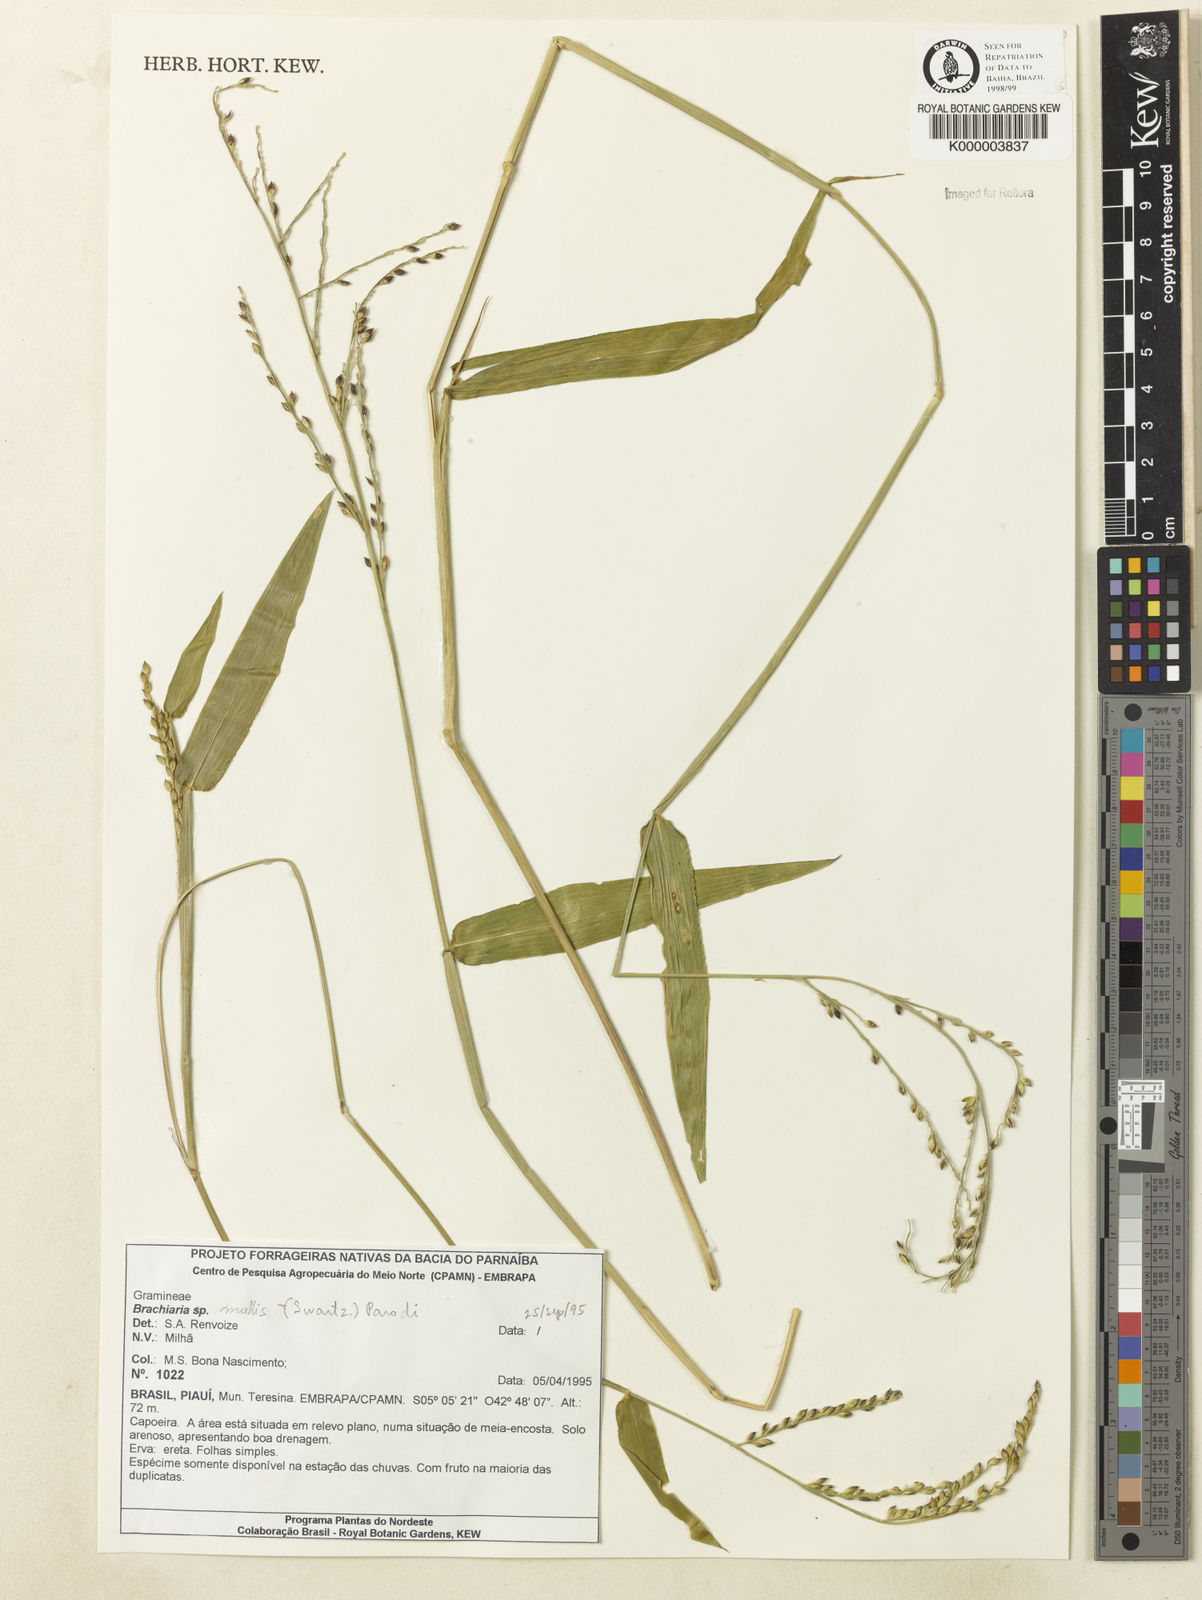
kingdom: Plantae
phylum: Tracheophyta
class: Liliopsida
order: Poales
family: Poaceae
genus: Urochloa
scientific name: Urochloa mollis
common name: Grass
